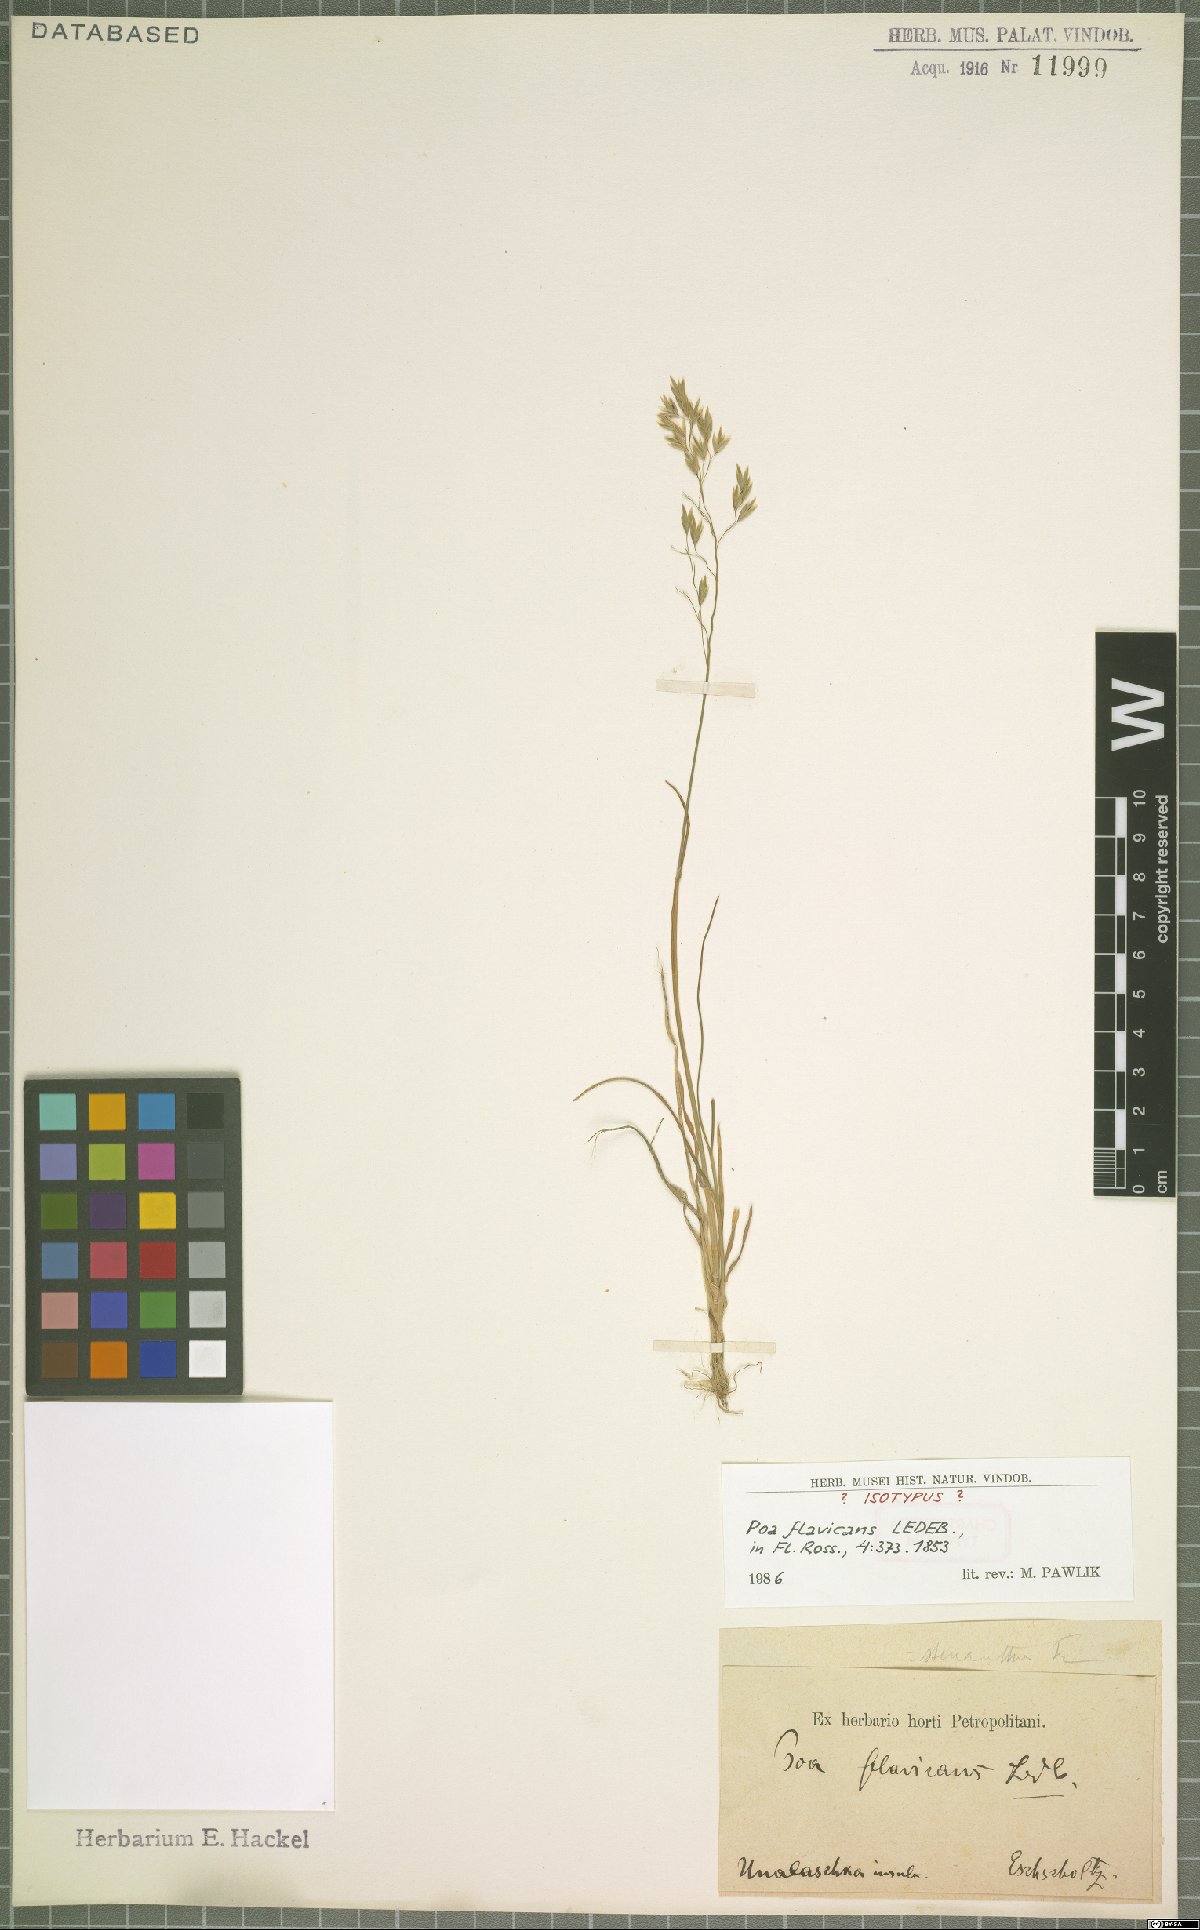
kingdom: Plantae
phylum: Tracheophyta
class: Liliopsida
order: Poales
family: Poaceae
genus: Poa
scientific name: Poa stenantha
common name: Narrow-flowered bluegrass
